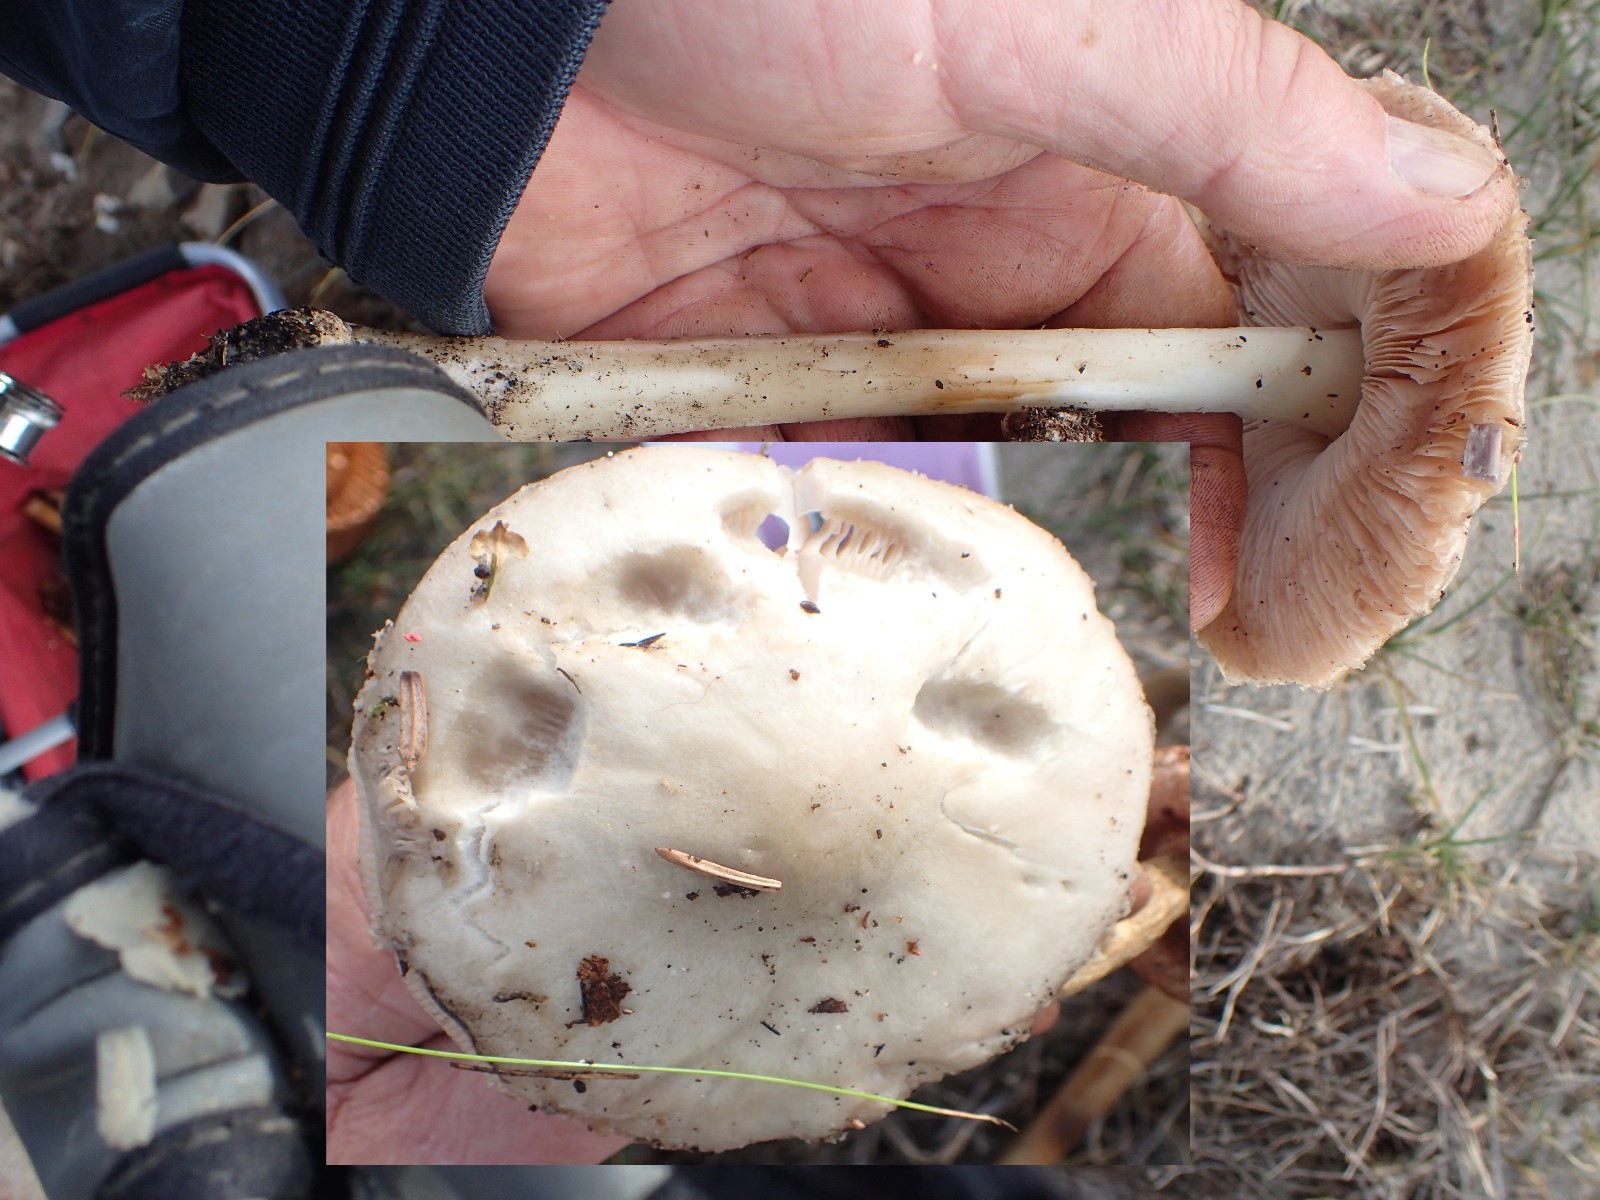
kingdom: Fungi
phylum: Basidiomycota
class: Agaricomycetes
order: Agaricales
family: Pluteaceae
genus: Volvopluteus
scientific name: Volvopluteus gloiocephalus
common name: høj posesvamp
